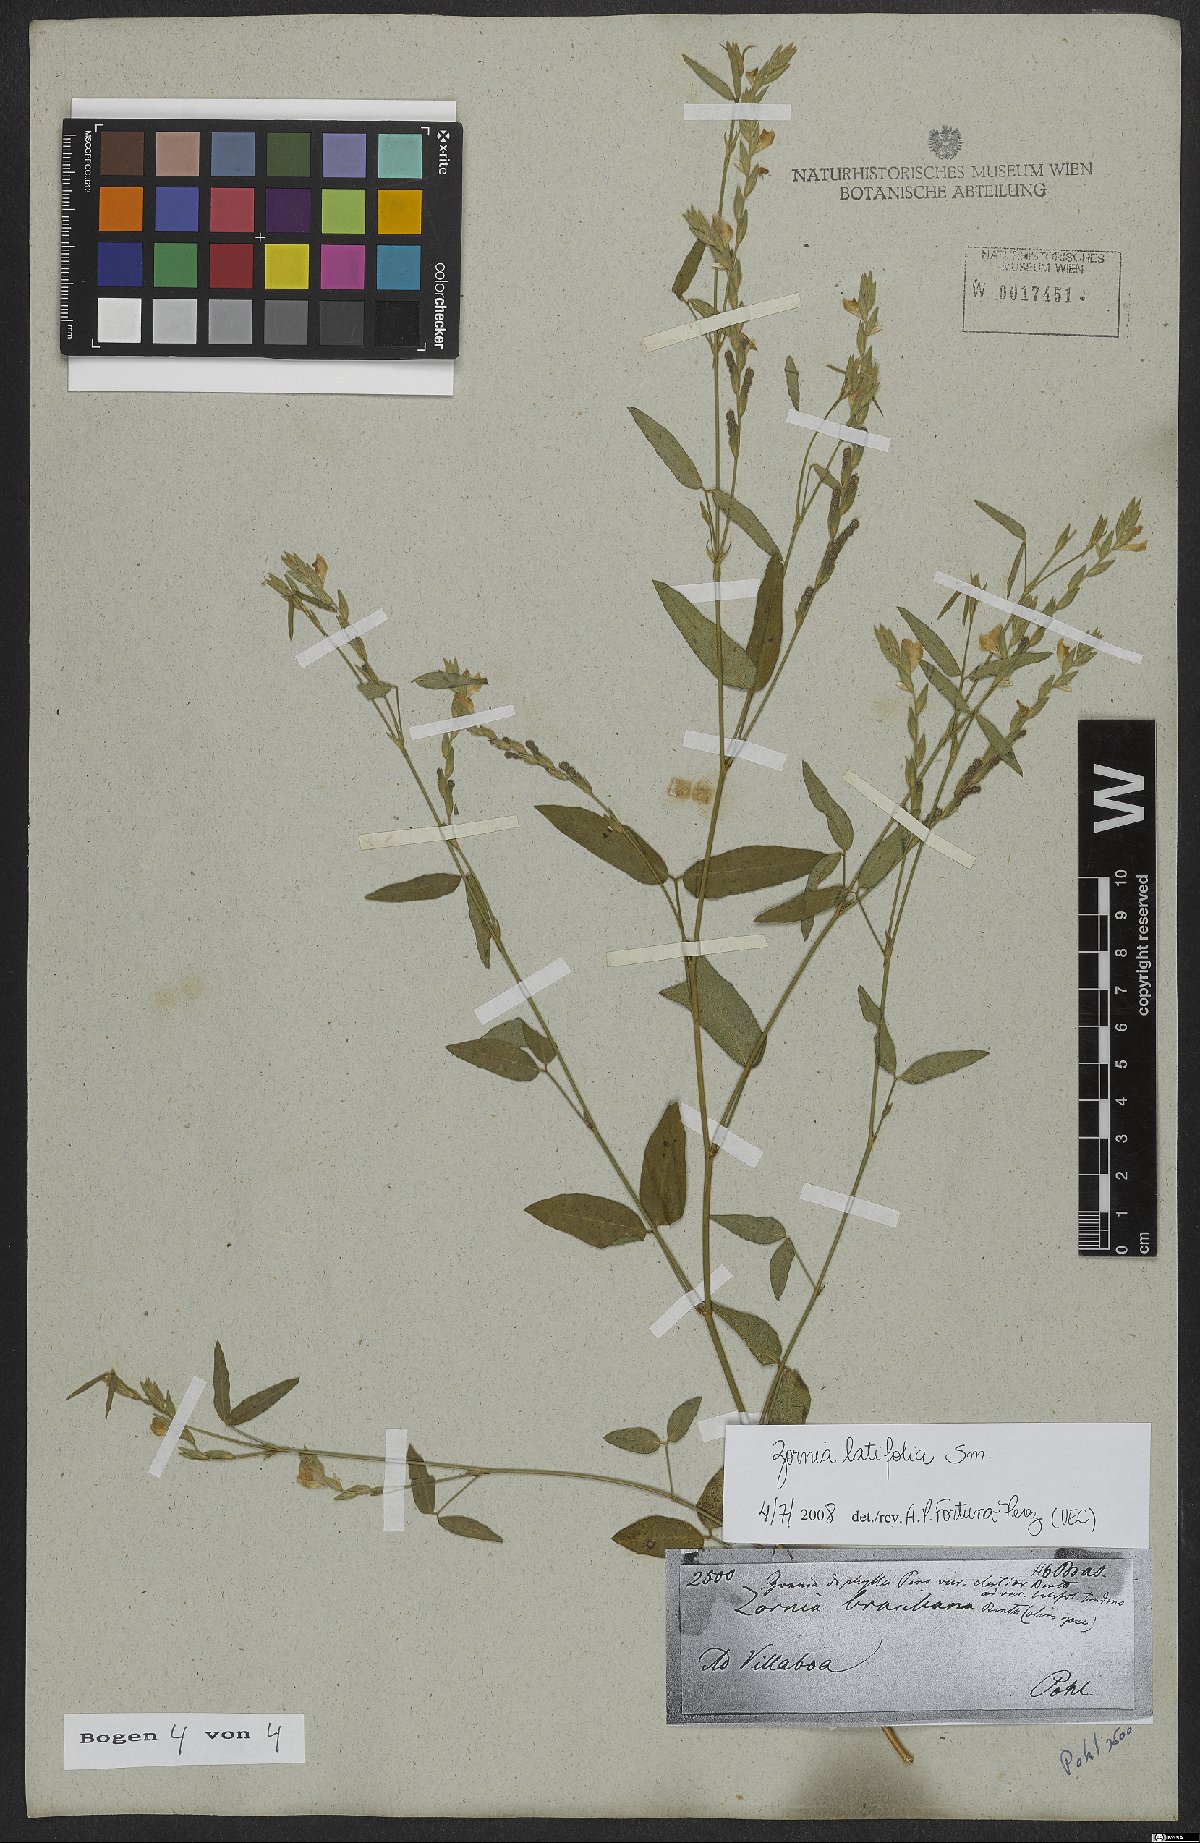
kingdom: Plantae
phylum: Tracheophyta
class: Magnoliopsida
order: Fabales
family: Fabaceae
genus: Zornia
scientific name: Zornia sericea
